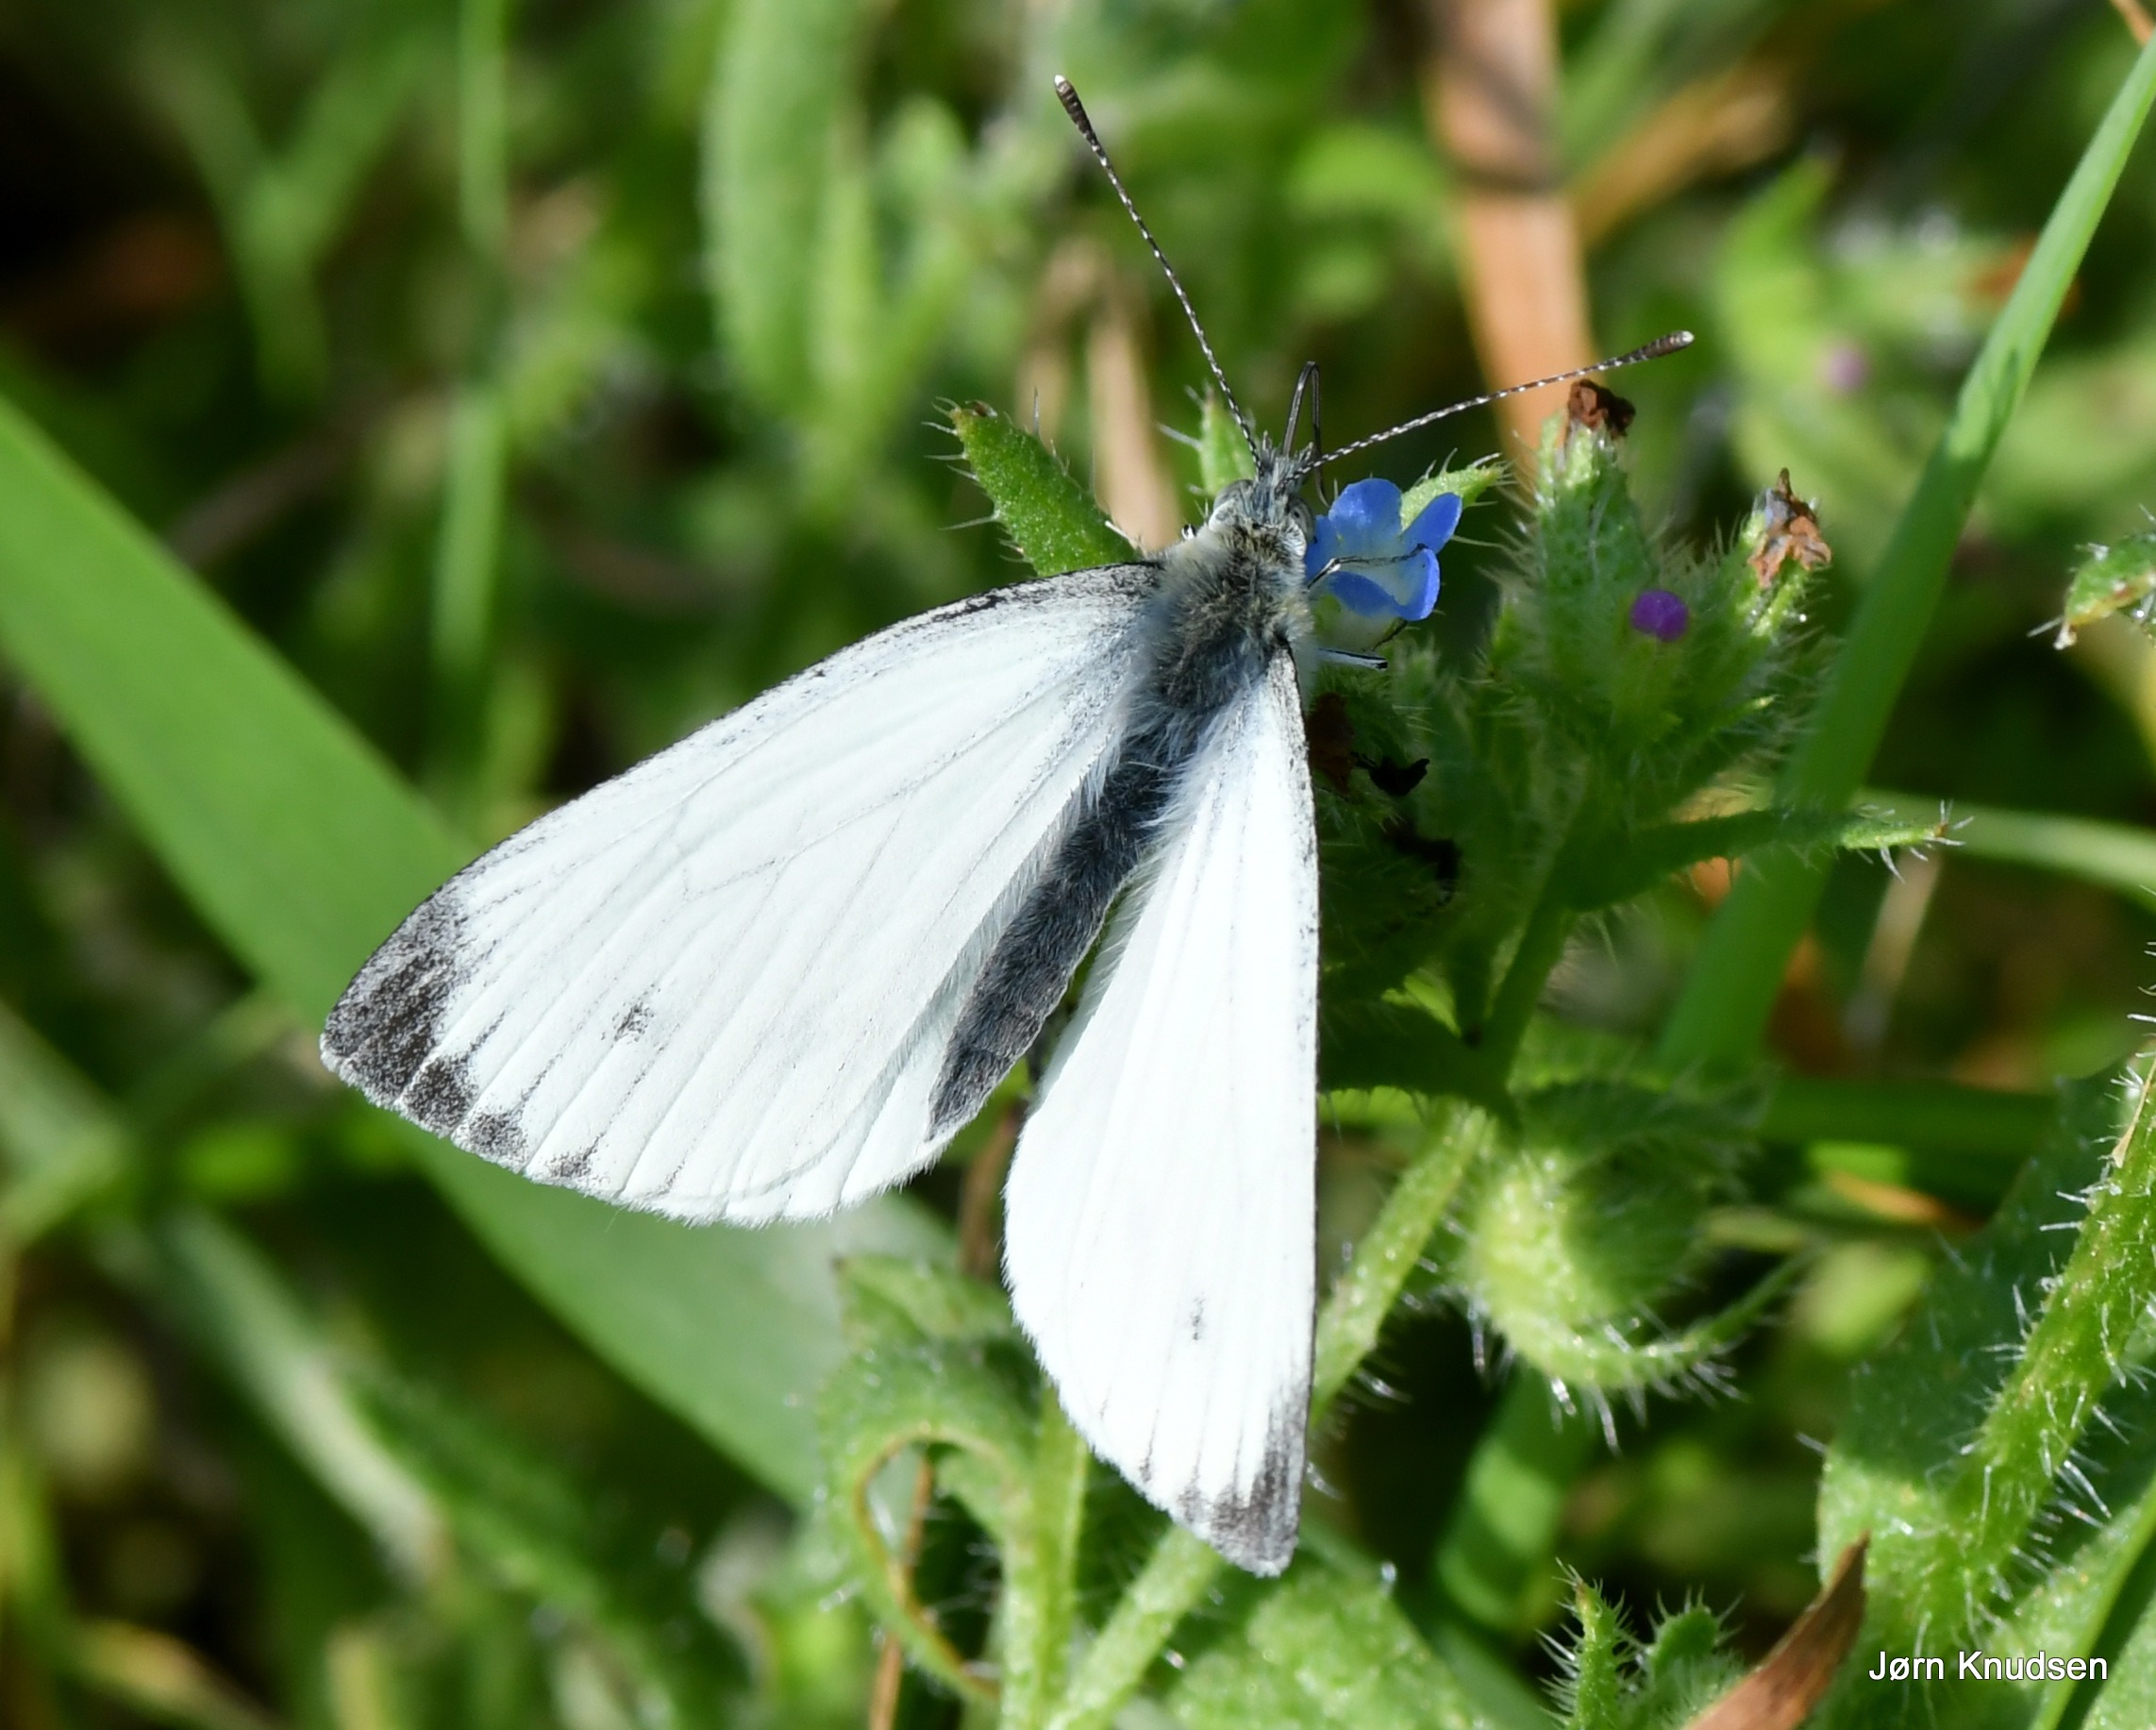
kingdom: Animalia
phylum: Arthropoda
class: Insecta
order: Lepidoptera
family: Pieridae
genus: Pieris
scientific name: Pieris napi
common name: Grønåret kålsommerfugl
